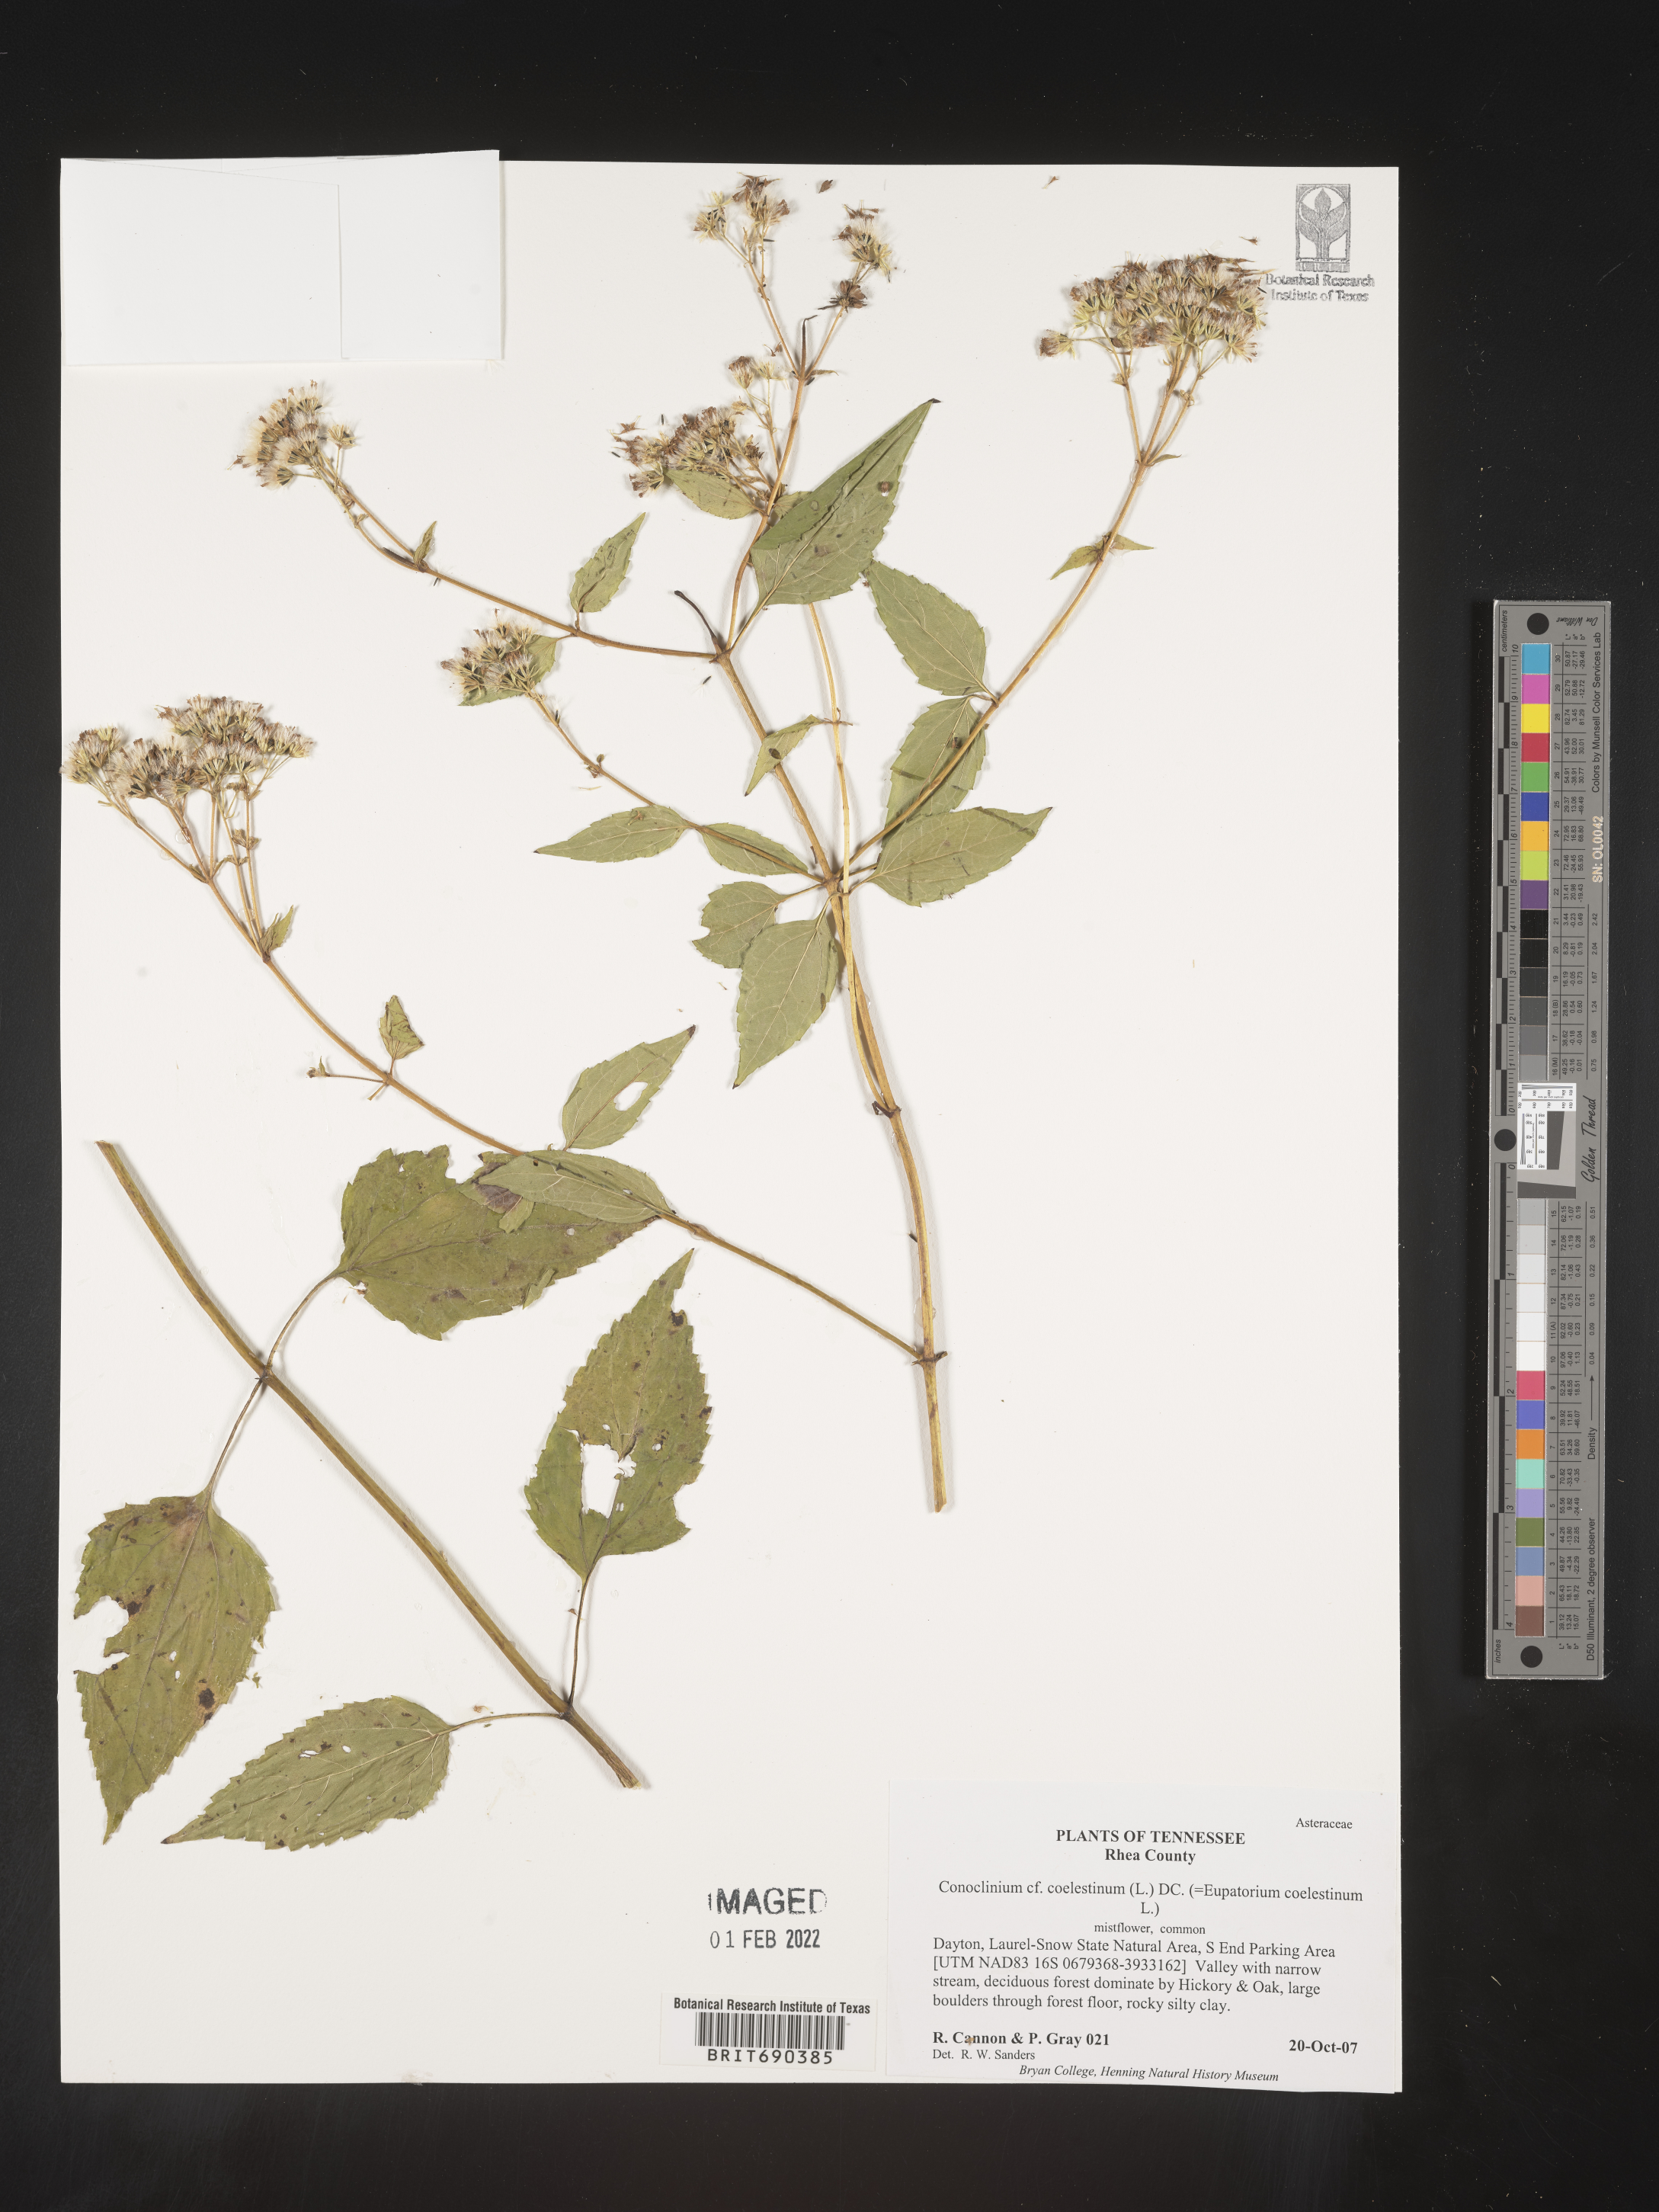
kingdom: Plantae
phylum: Tracheophyta
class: Magnoliopsida
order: Asterales
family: Asteraceae
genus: Conoclinium
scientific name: Conoclinium coelestinum
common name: Blue mistflower
